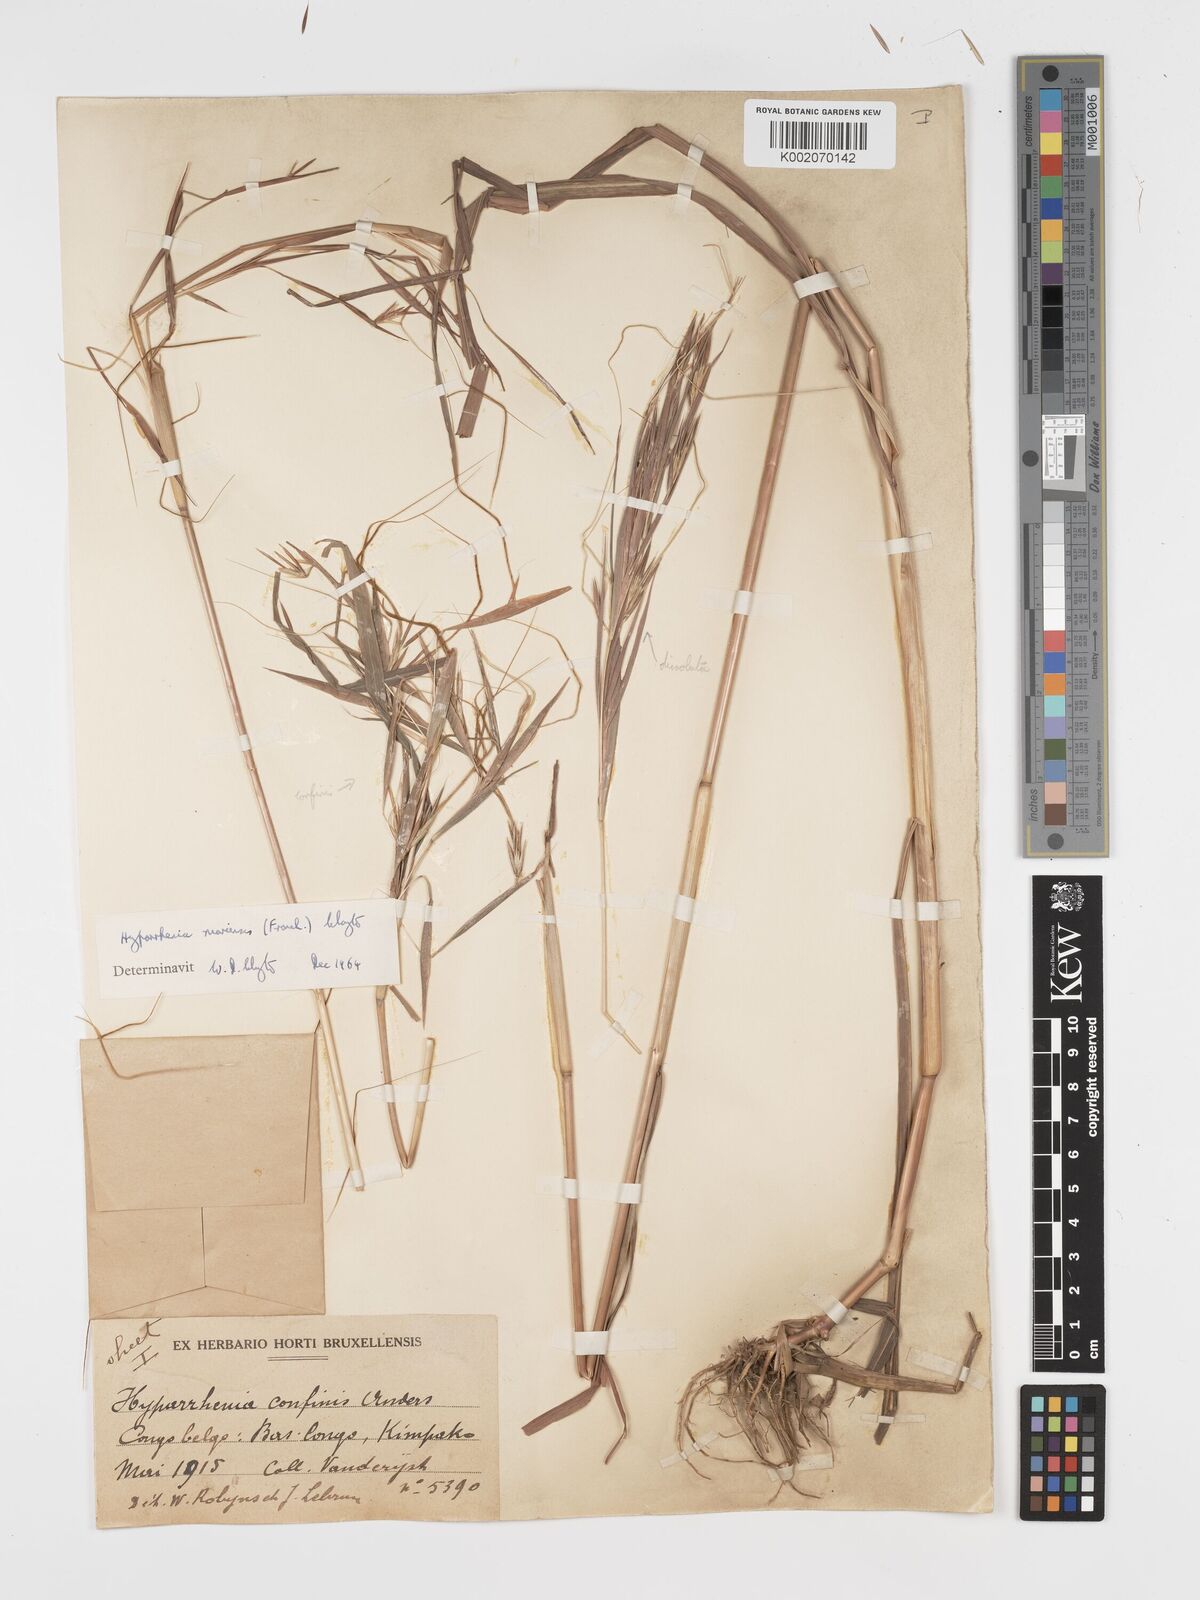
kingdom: Plantae
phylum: Tracheophyta
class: Liliopsida
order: Poales
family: Poaceae
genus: Hyparrhenia
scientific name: Hyparrhenia niariensis
